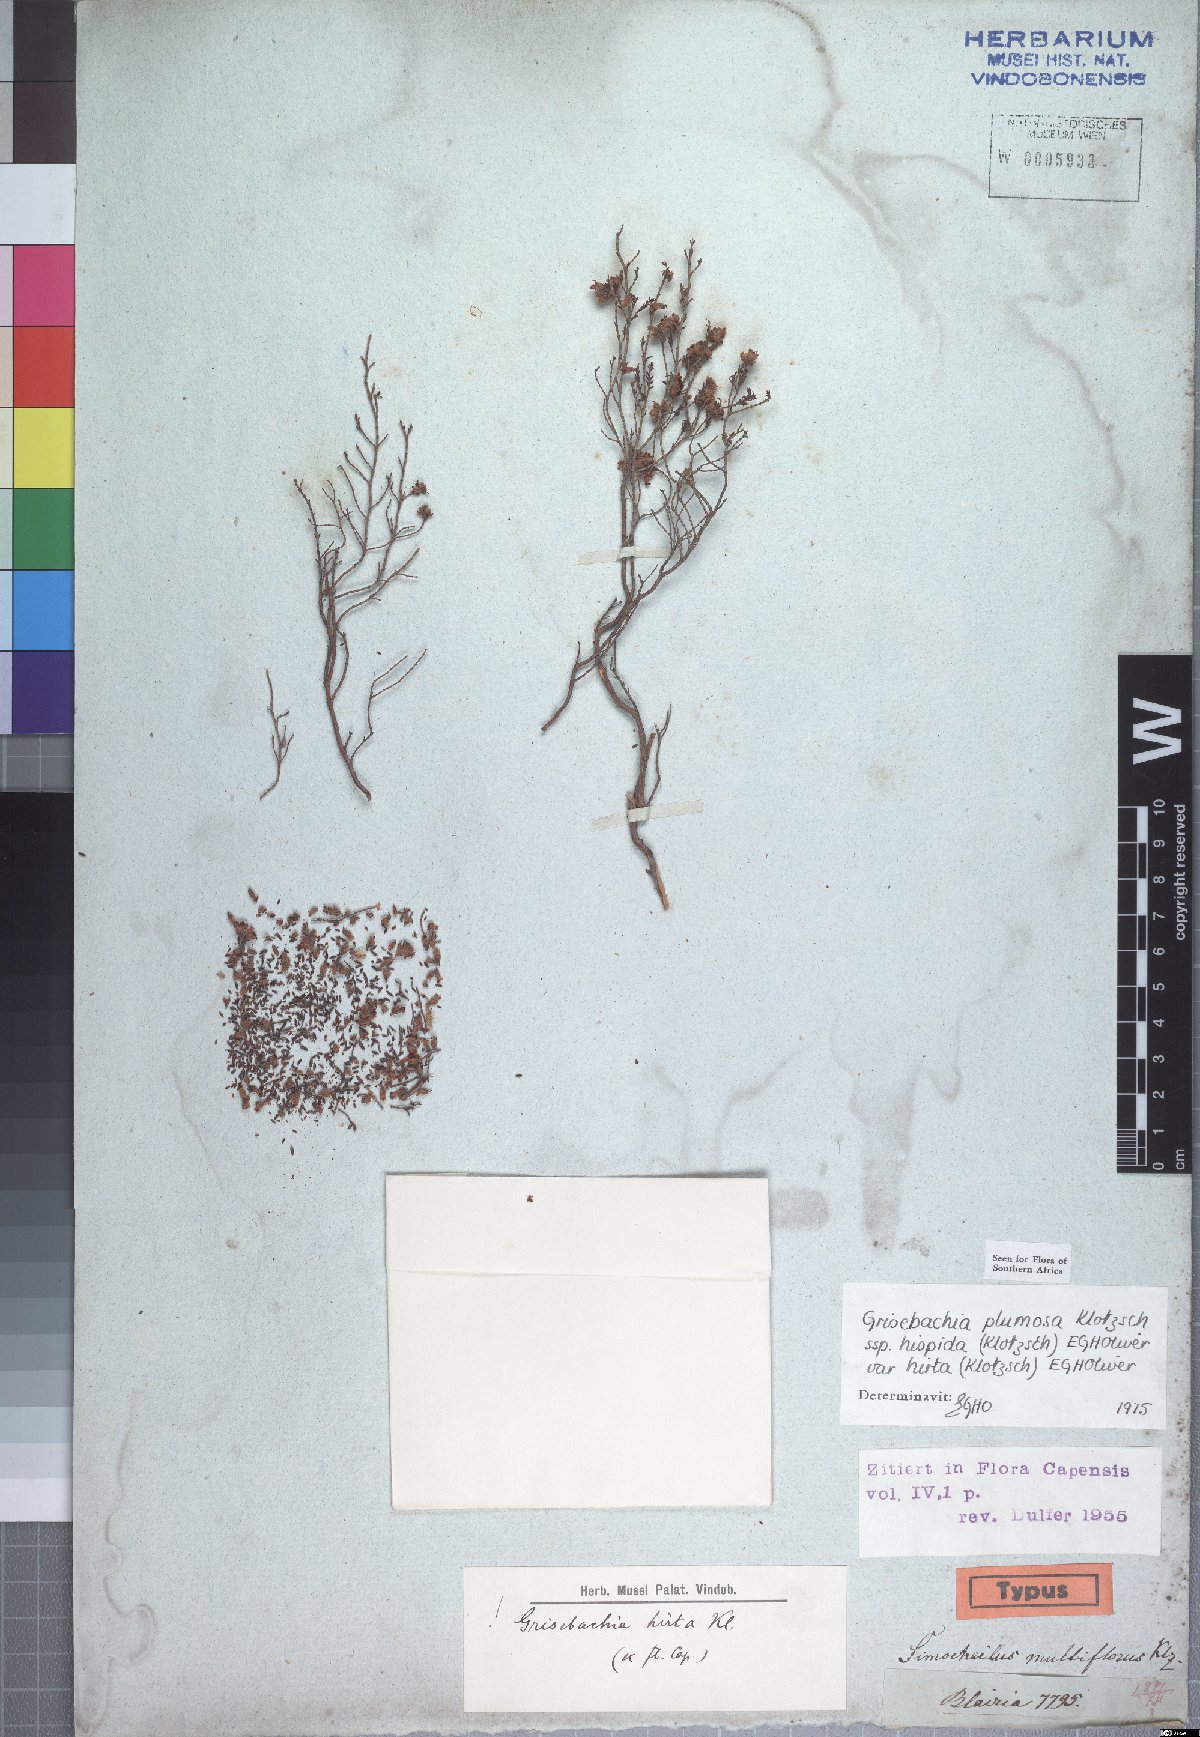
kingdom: Plantae
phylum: Tracheophyta
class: Magnoliopsida
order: Ericales
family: Ericaceae
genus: Erica
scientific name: Erica plumosa
